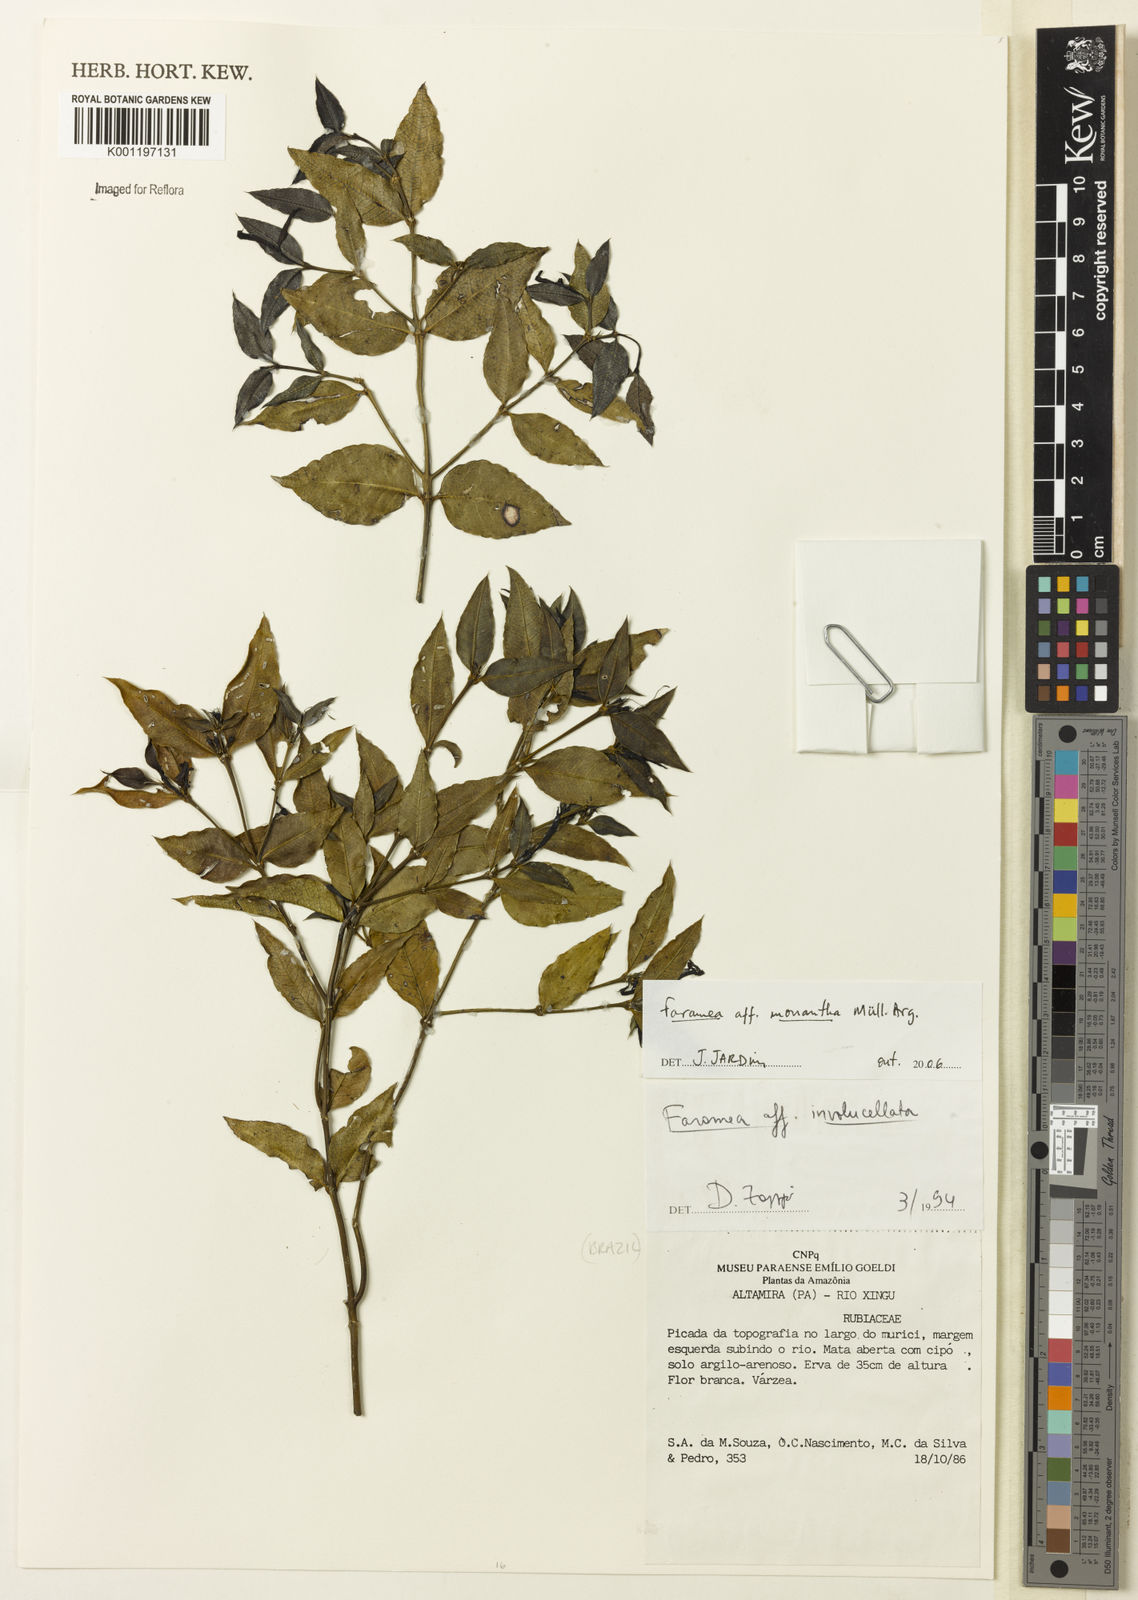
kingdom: Plantae
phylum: Tracheophyta
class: Magnoliopsida
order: Gentianales
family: Rubiaceae
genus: Faramea
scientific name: Faramea
